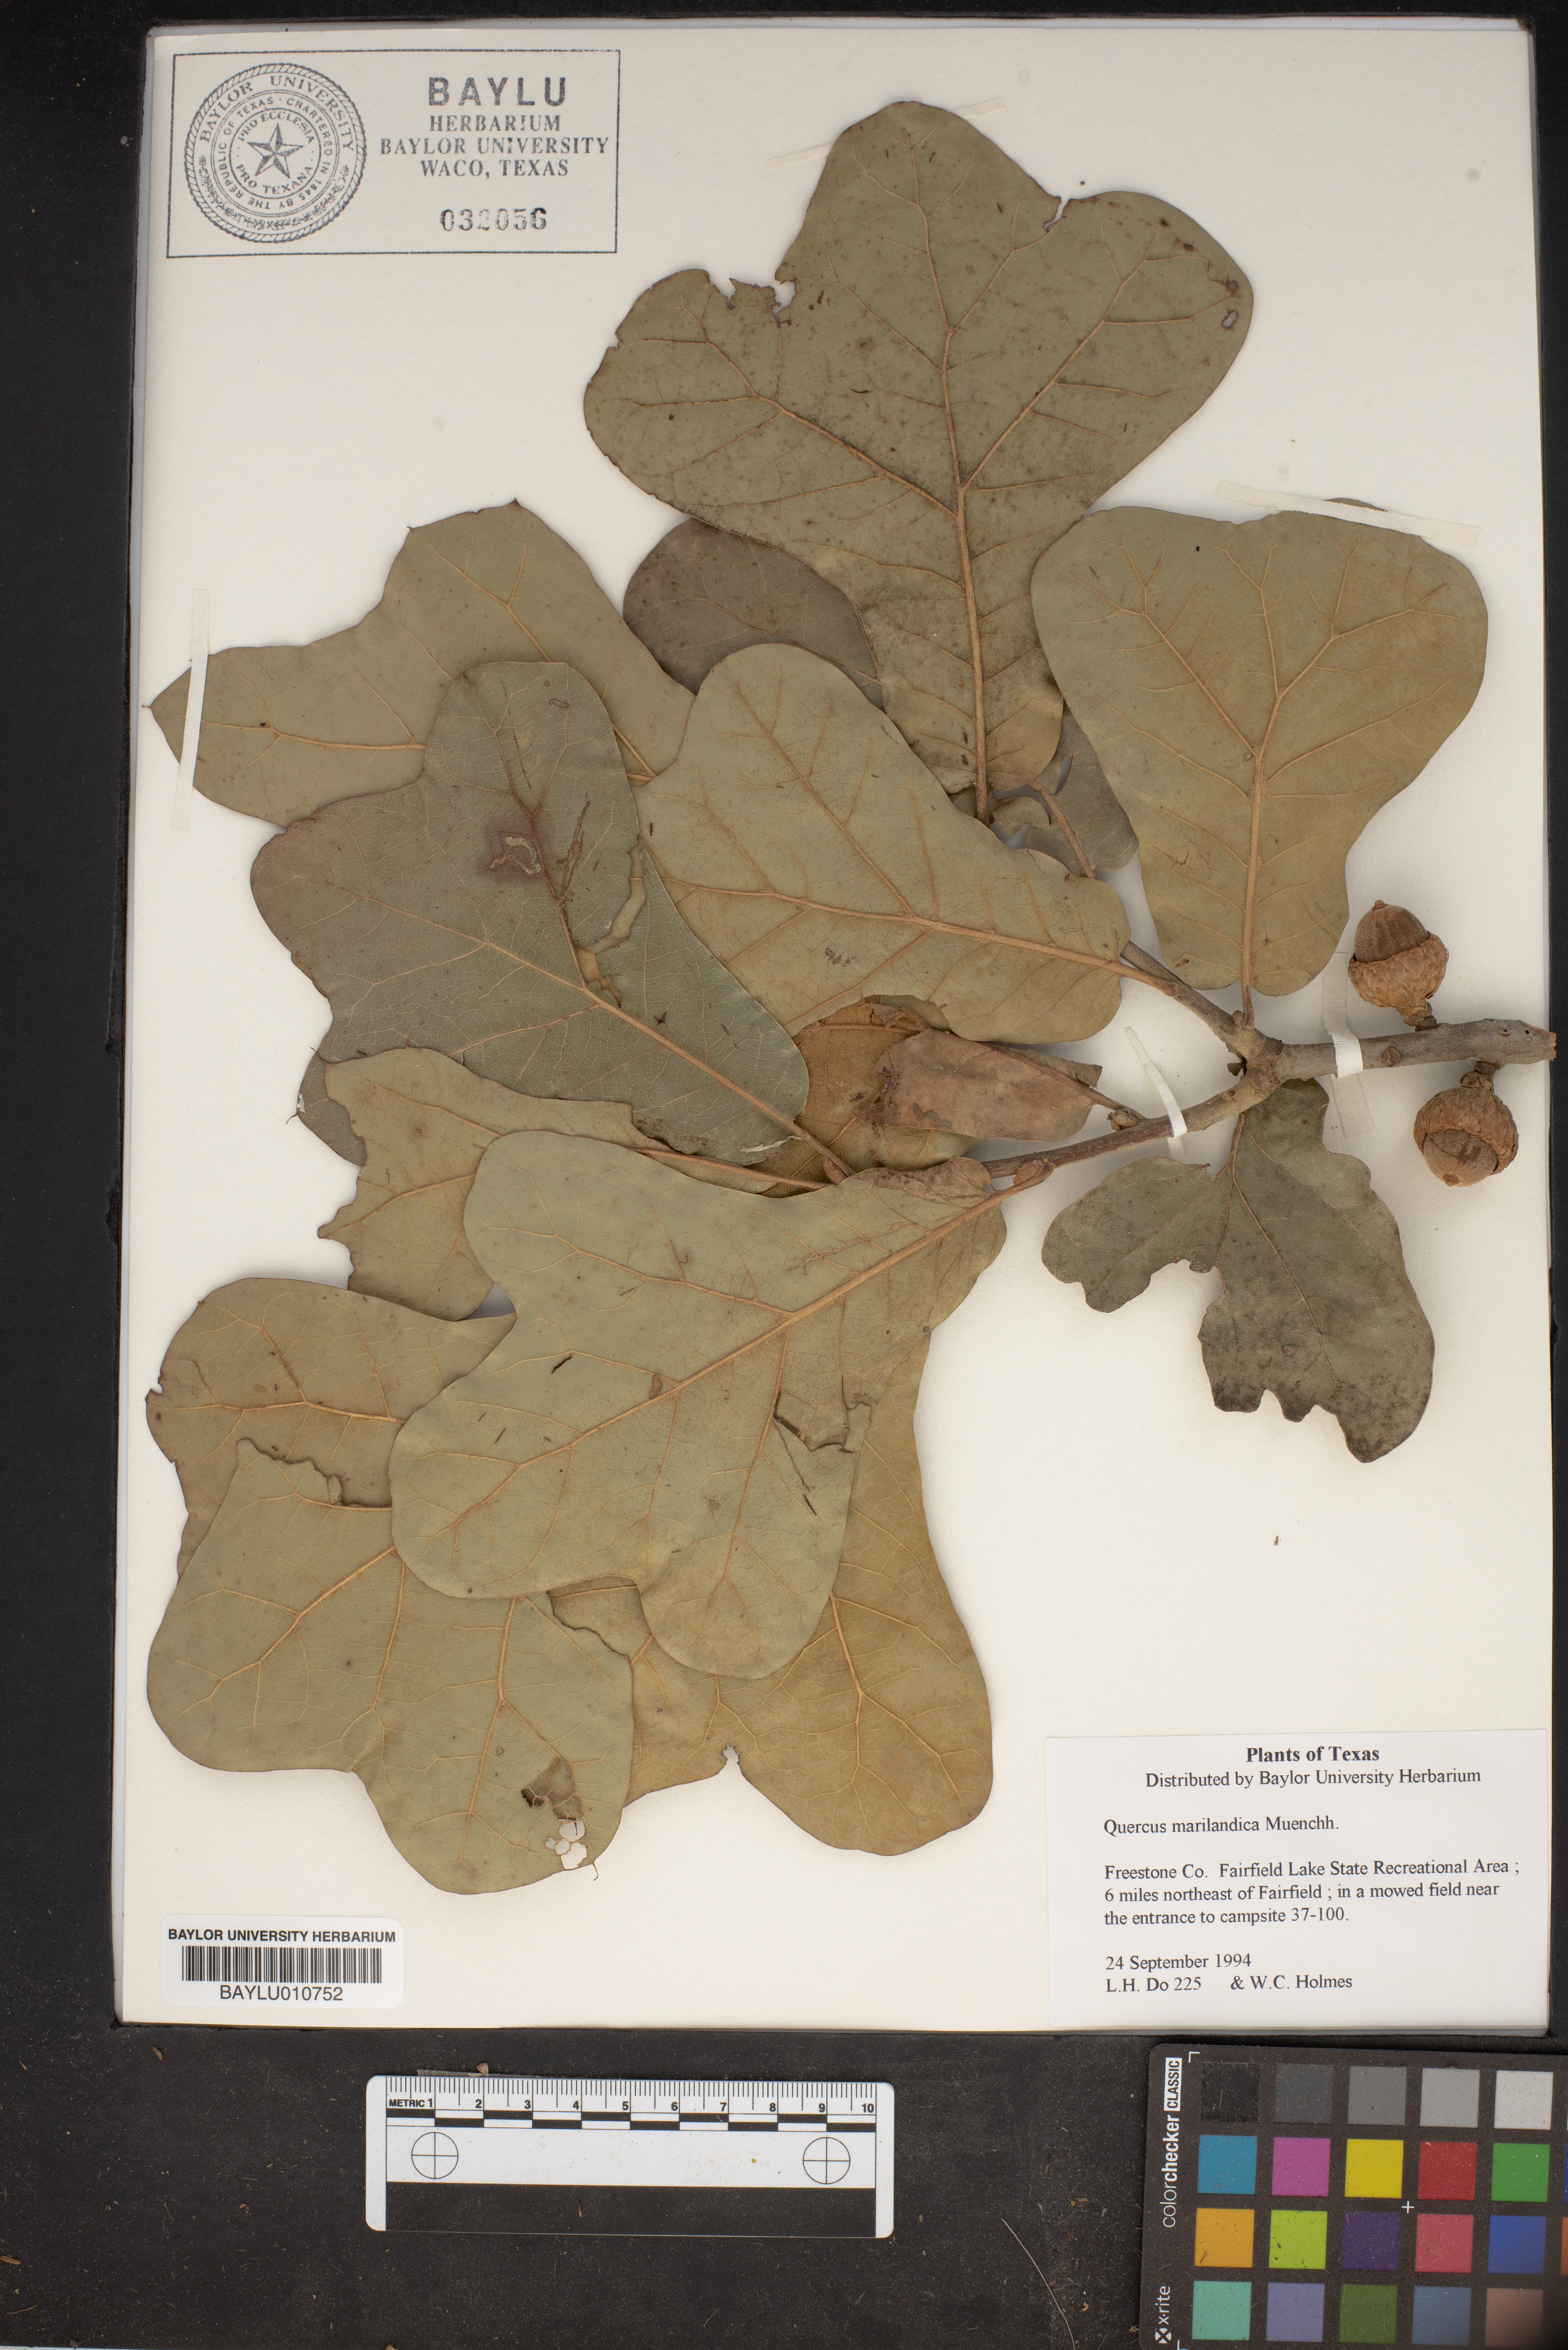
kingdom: Plantae
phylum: Tracheophyta
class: Magnoliopsida
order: Fagales
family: Fagaceae
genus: Quercus
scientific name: Quercus marilandica
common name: Blackjack oak
